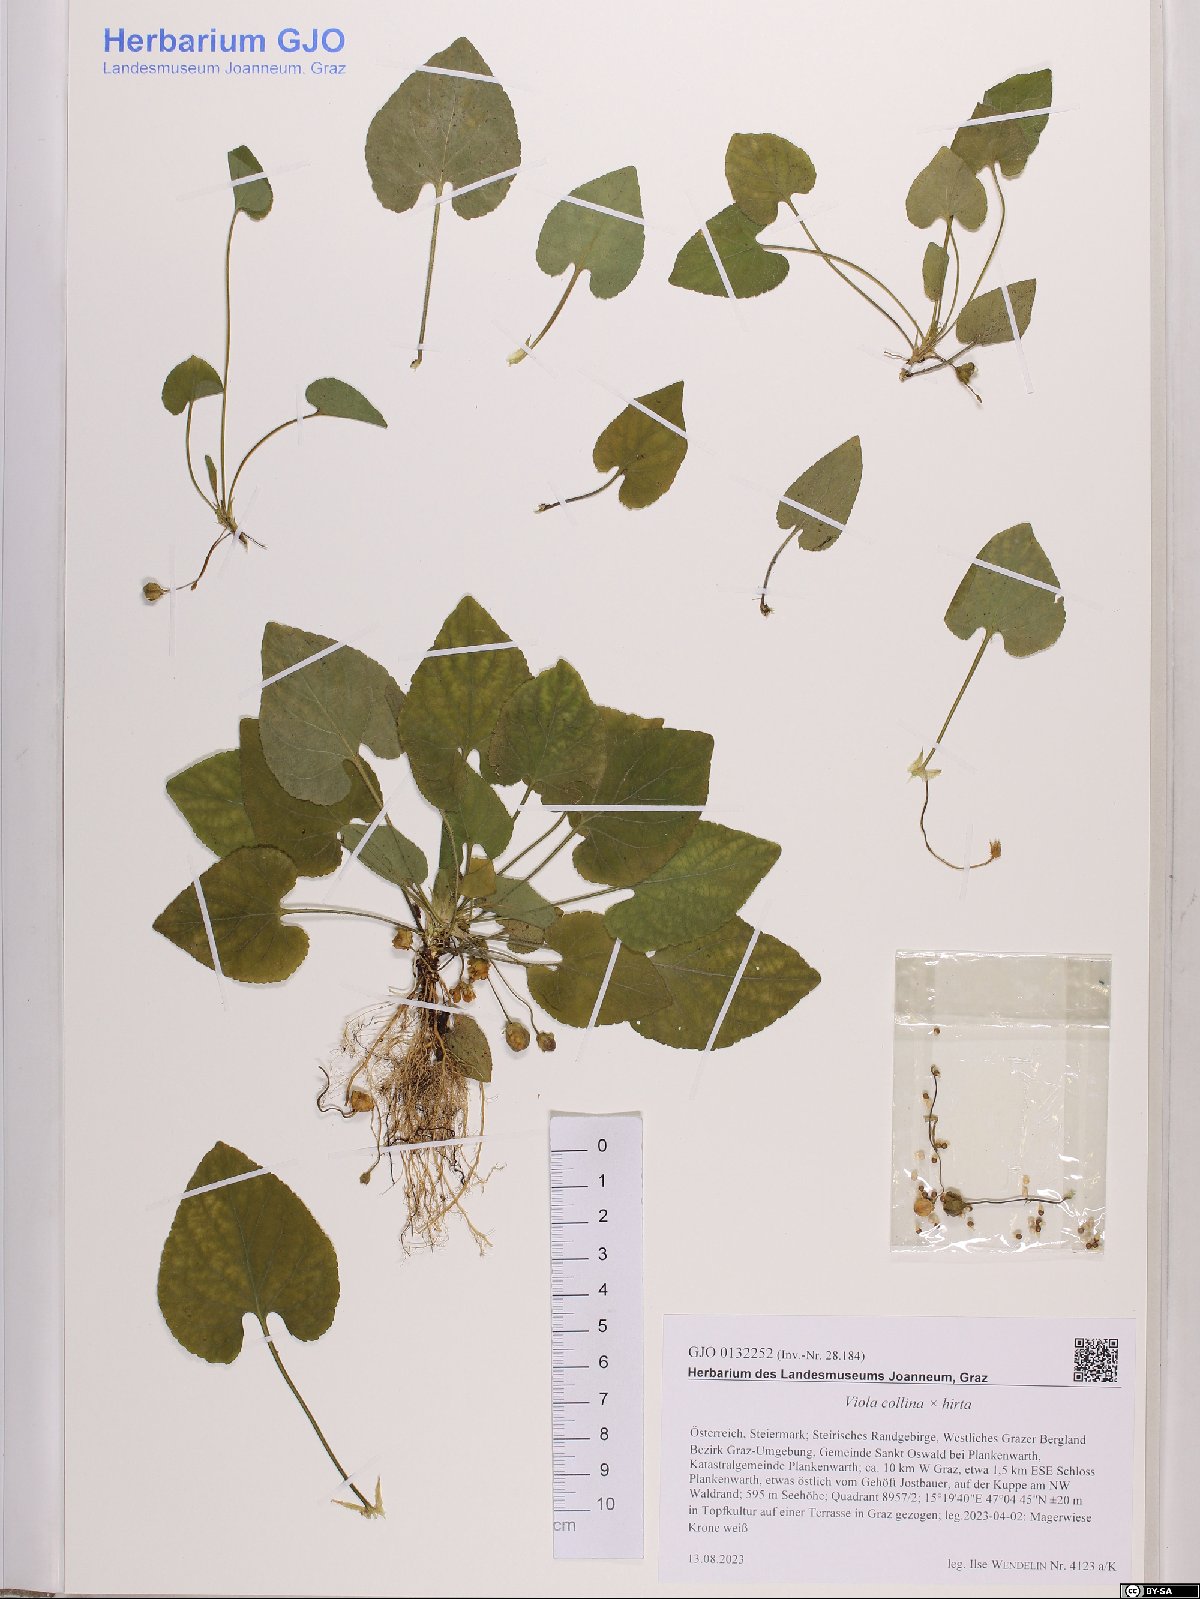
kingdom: Plantae
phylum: Tracheophyta
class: Magnoliopsida
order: Malpighiales
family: Violaceae
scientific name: Violaceae
